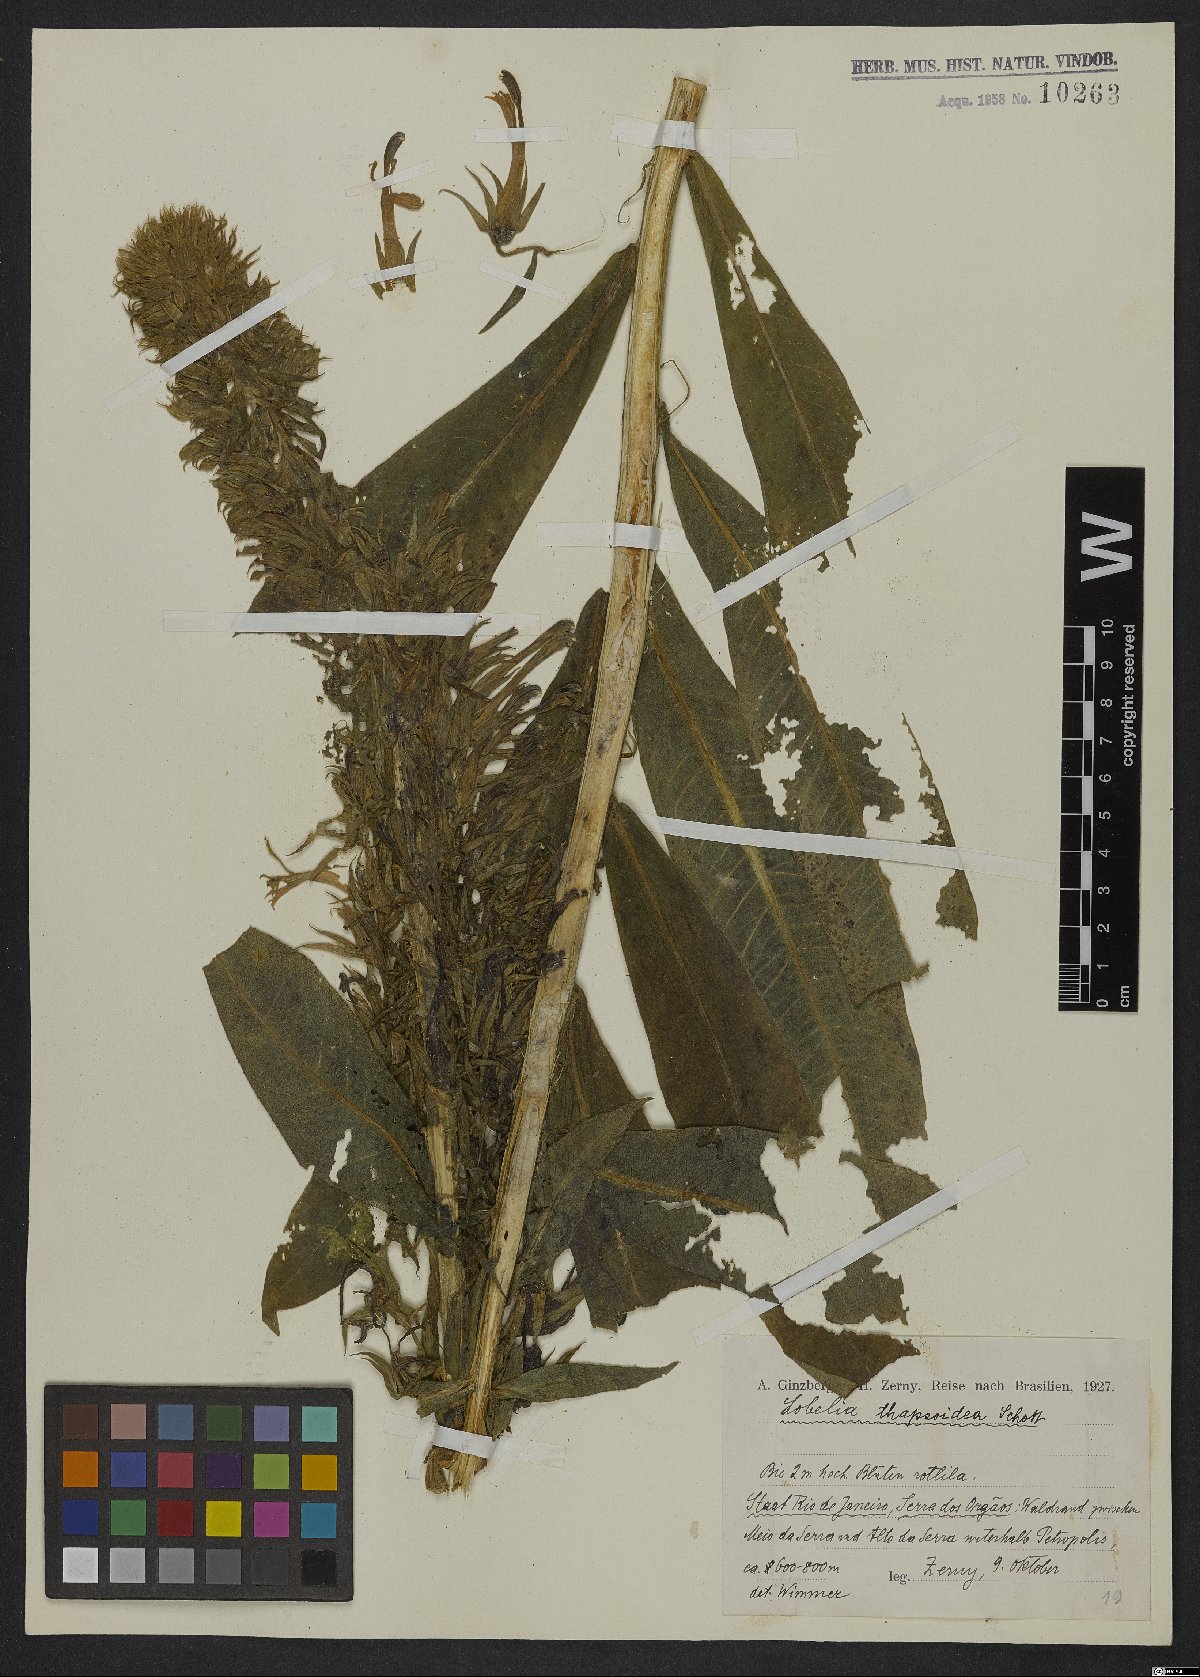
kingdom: Plantae
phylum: Tracheophyta
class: Magnoliopsida
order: Asterales
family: Campanulaceae
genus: Lobelia
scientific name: Lobelia thapsoidea
